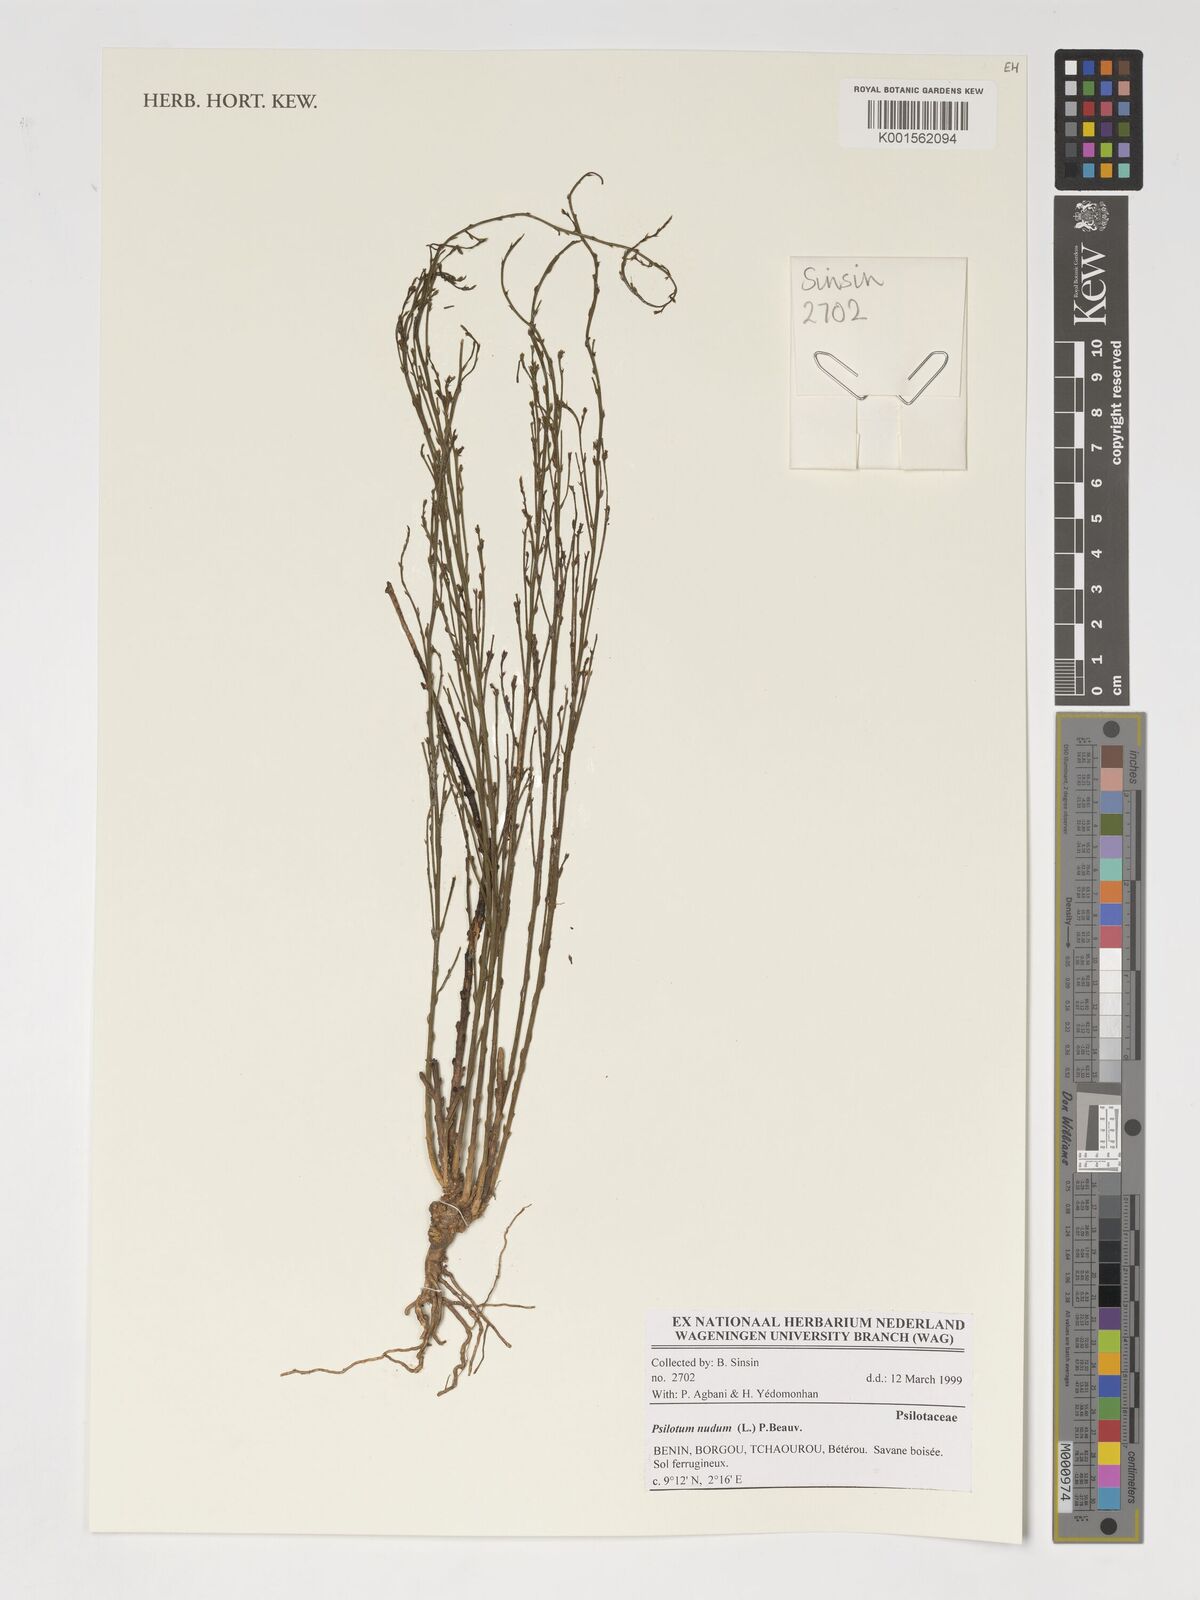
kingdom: Plantae
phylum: Tracheophyta
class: Polypodiopsida
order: Psilotales
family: Psilotaceae
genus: Psilotum
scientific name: Psilotum nudum
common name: Skeleton fork fern
